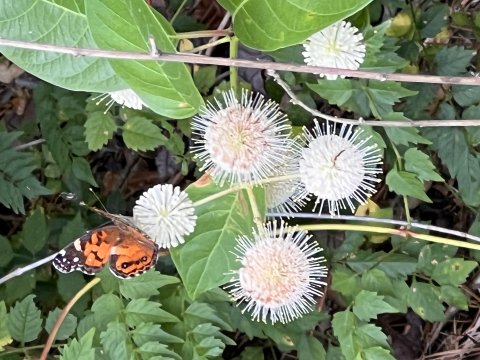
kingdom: Animalia
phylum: Arthropoda
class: Insecta
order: Lepidoptera
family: Nymphalidae
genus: Vanessa
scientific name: Vanessa virginiensis
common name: American Lady
